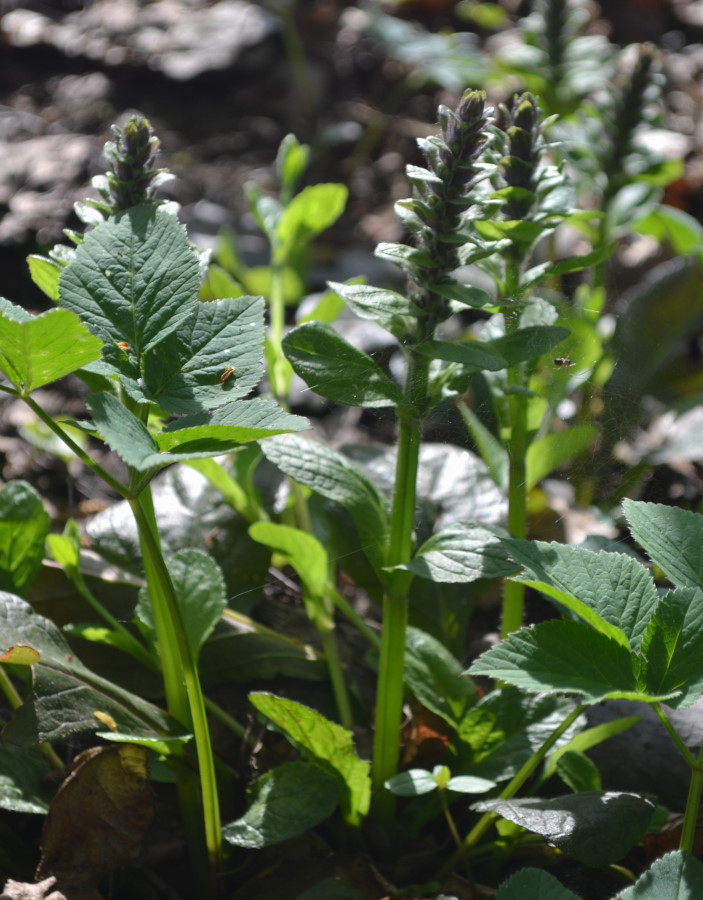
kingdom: Plantae
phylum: Tracheophyta
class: Magnoliopsida
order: Lamiales
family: Lamiaceae
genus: Ajuga
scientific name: Ajuga reptans
